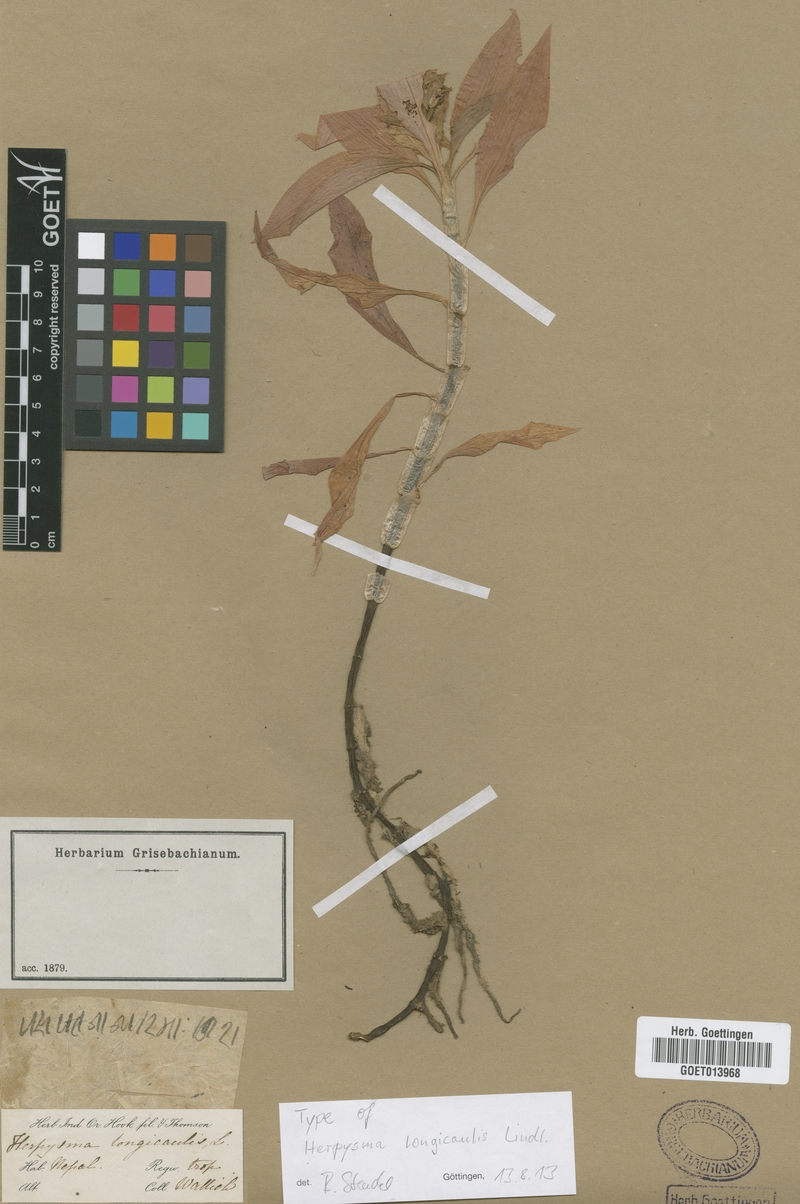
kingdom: Plantae
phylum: Tracheophyta
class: Liliopsida
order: Asparagales
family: Orchidaceae
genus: Herpysma
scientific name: Herpysma longicaulis
